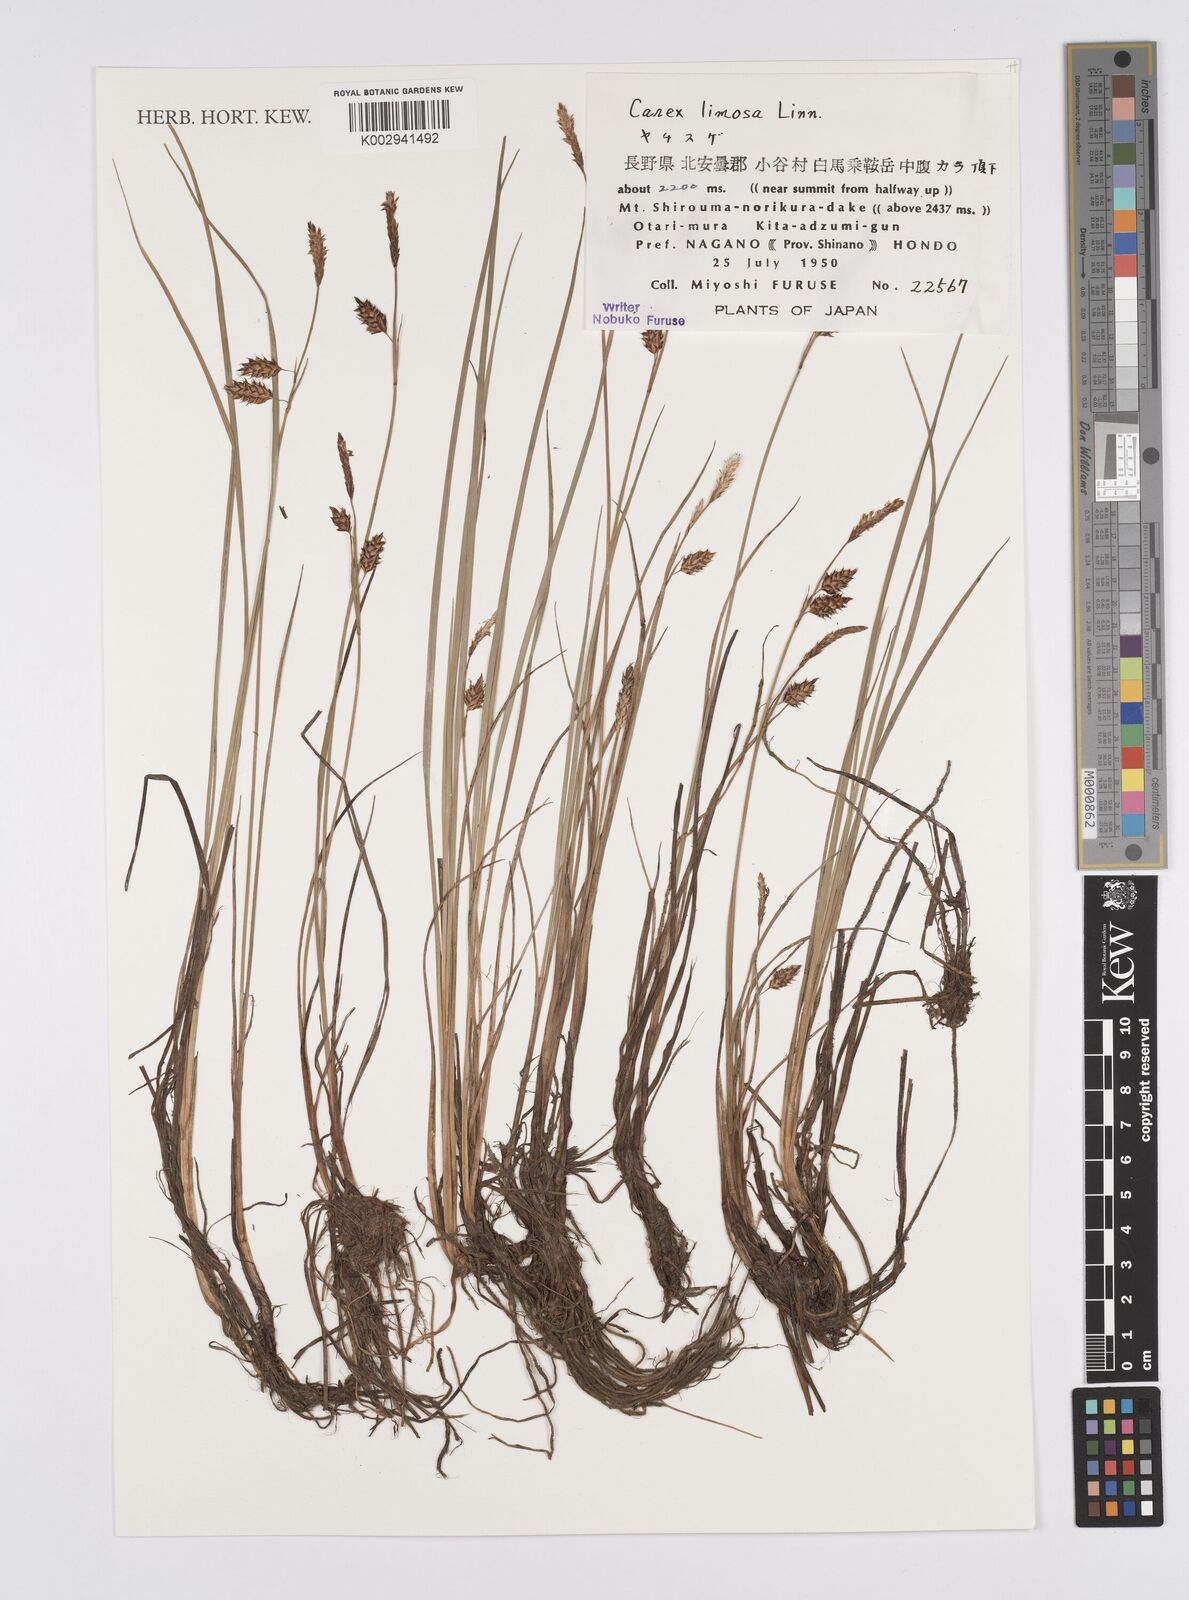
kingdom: Plantae
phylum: Tracheophyta
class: Liliopsida
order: Poales
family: Cyperaceae
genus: Carex
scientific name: Carex limosa
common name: Bog sedge
